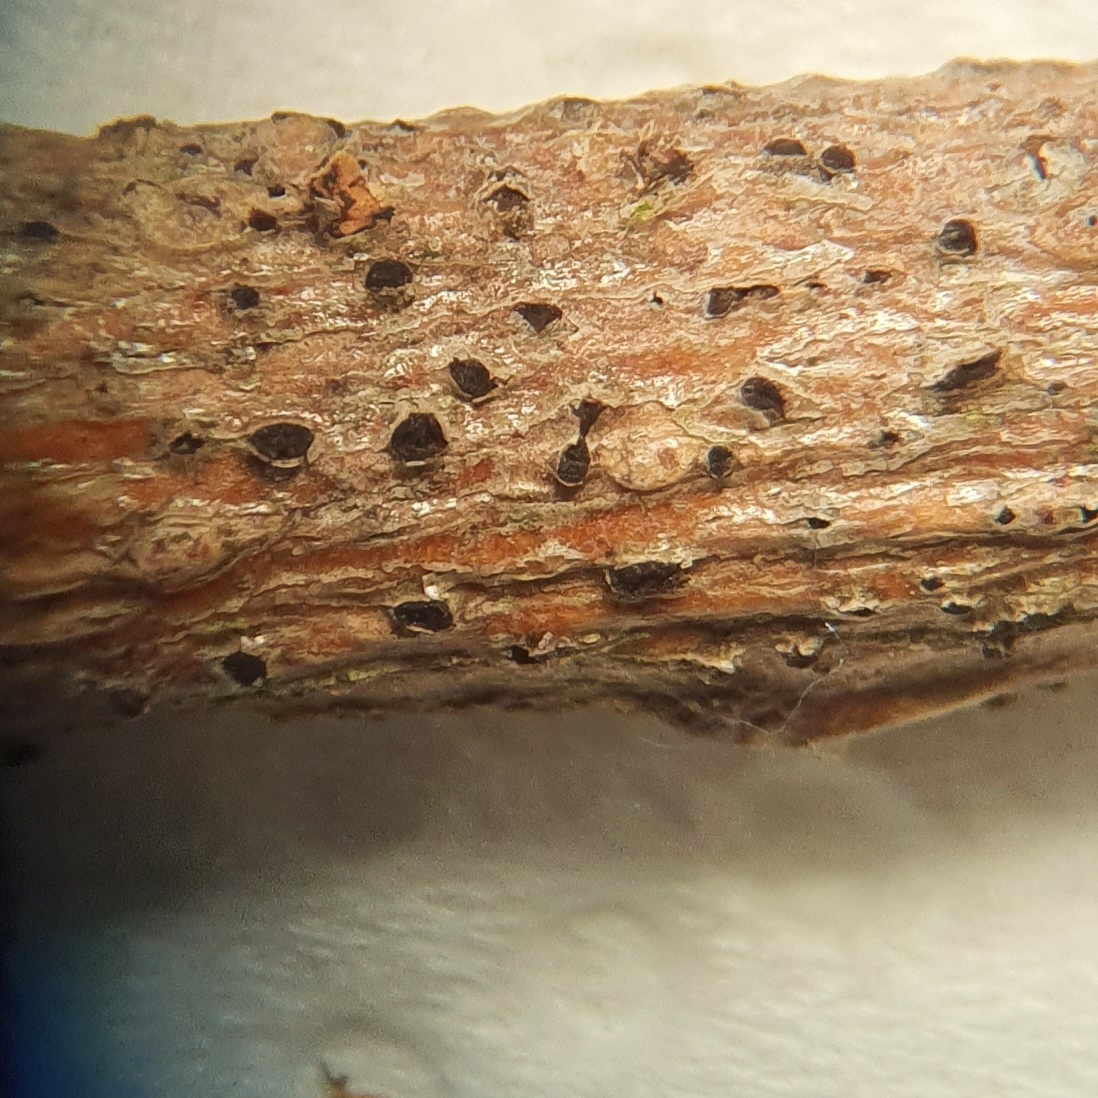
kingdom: Fungi
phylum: Ascomycota
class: Sordariomycetes
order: Diaporthales
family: Gnomoniaceae
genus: Plagiostoma
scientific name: Plagiostoma convexum
